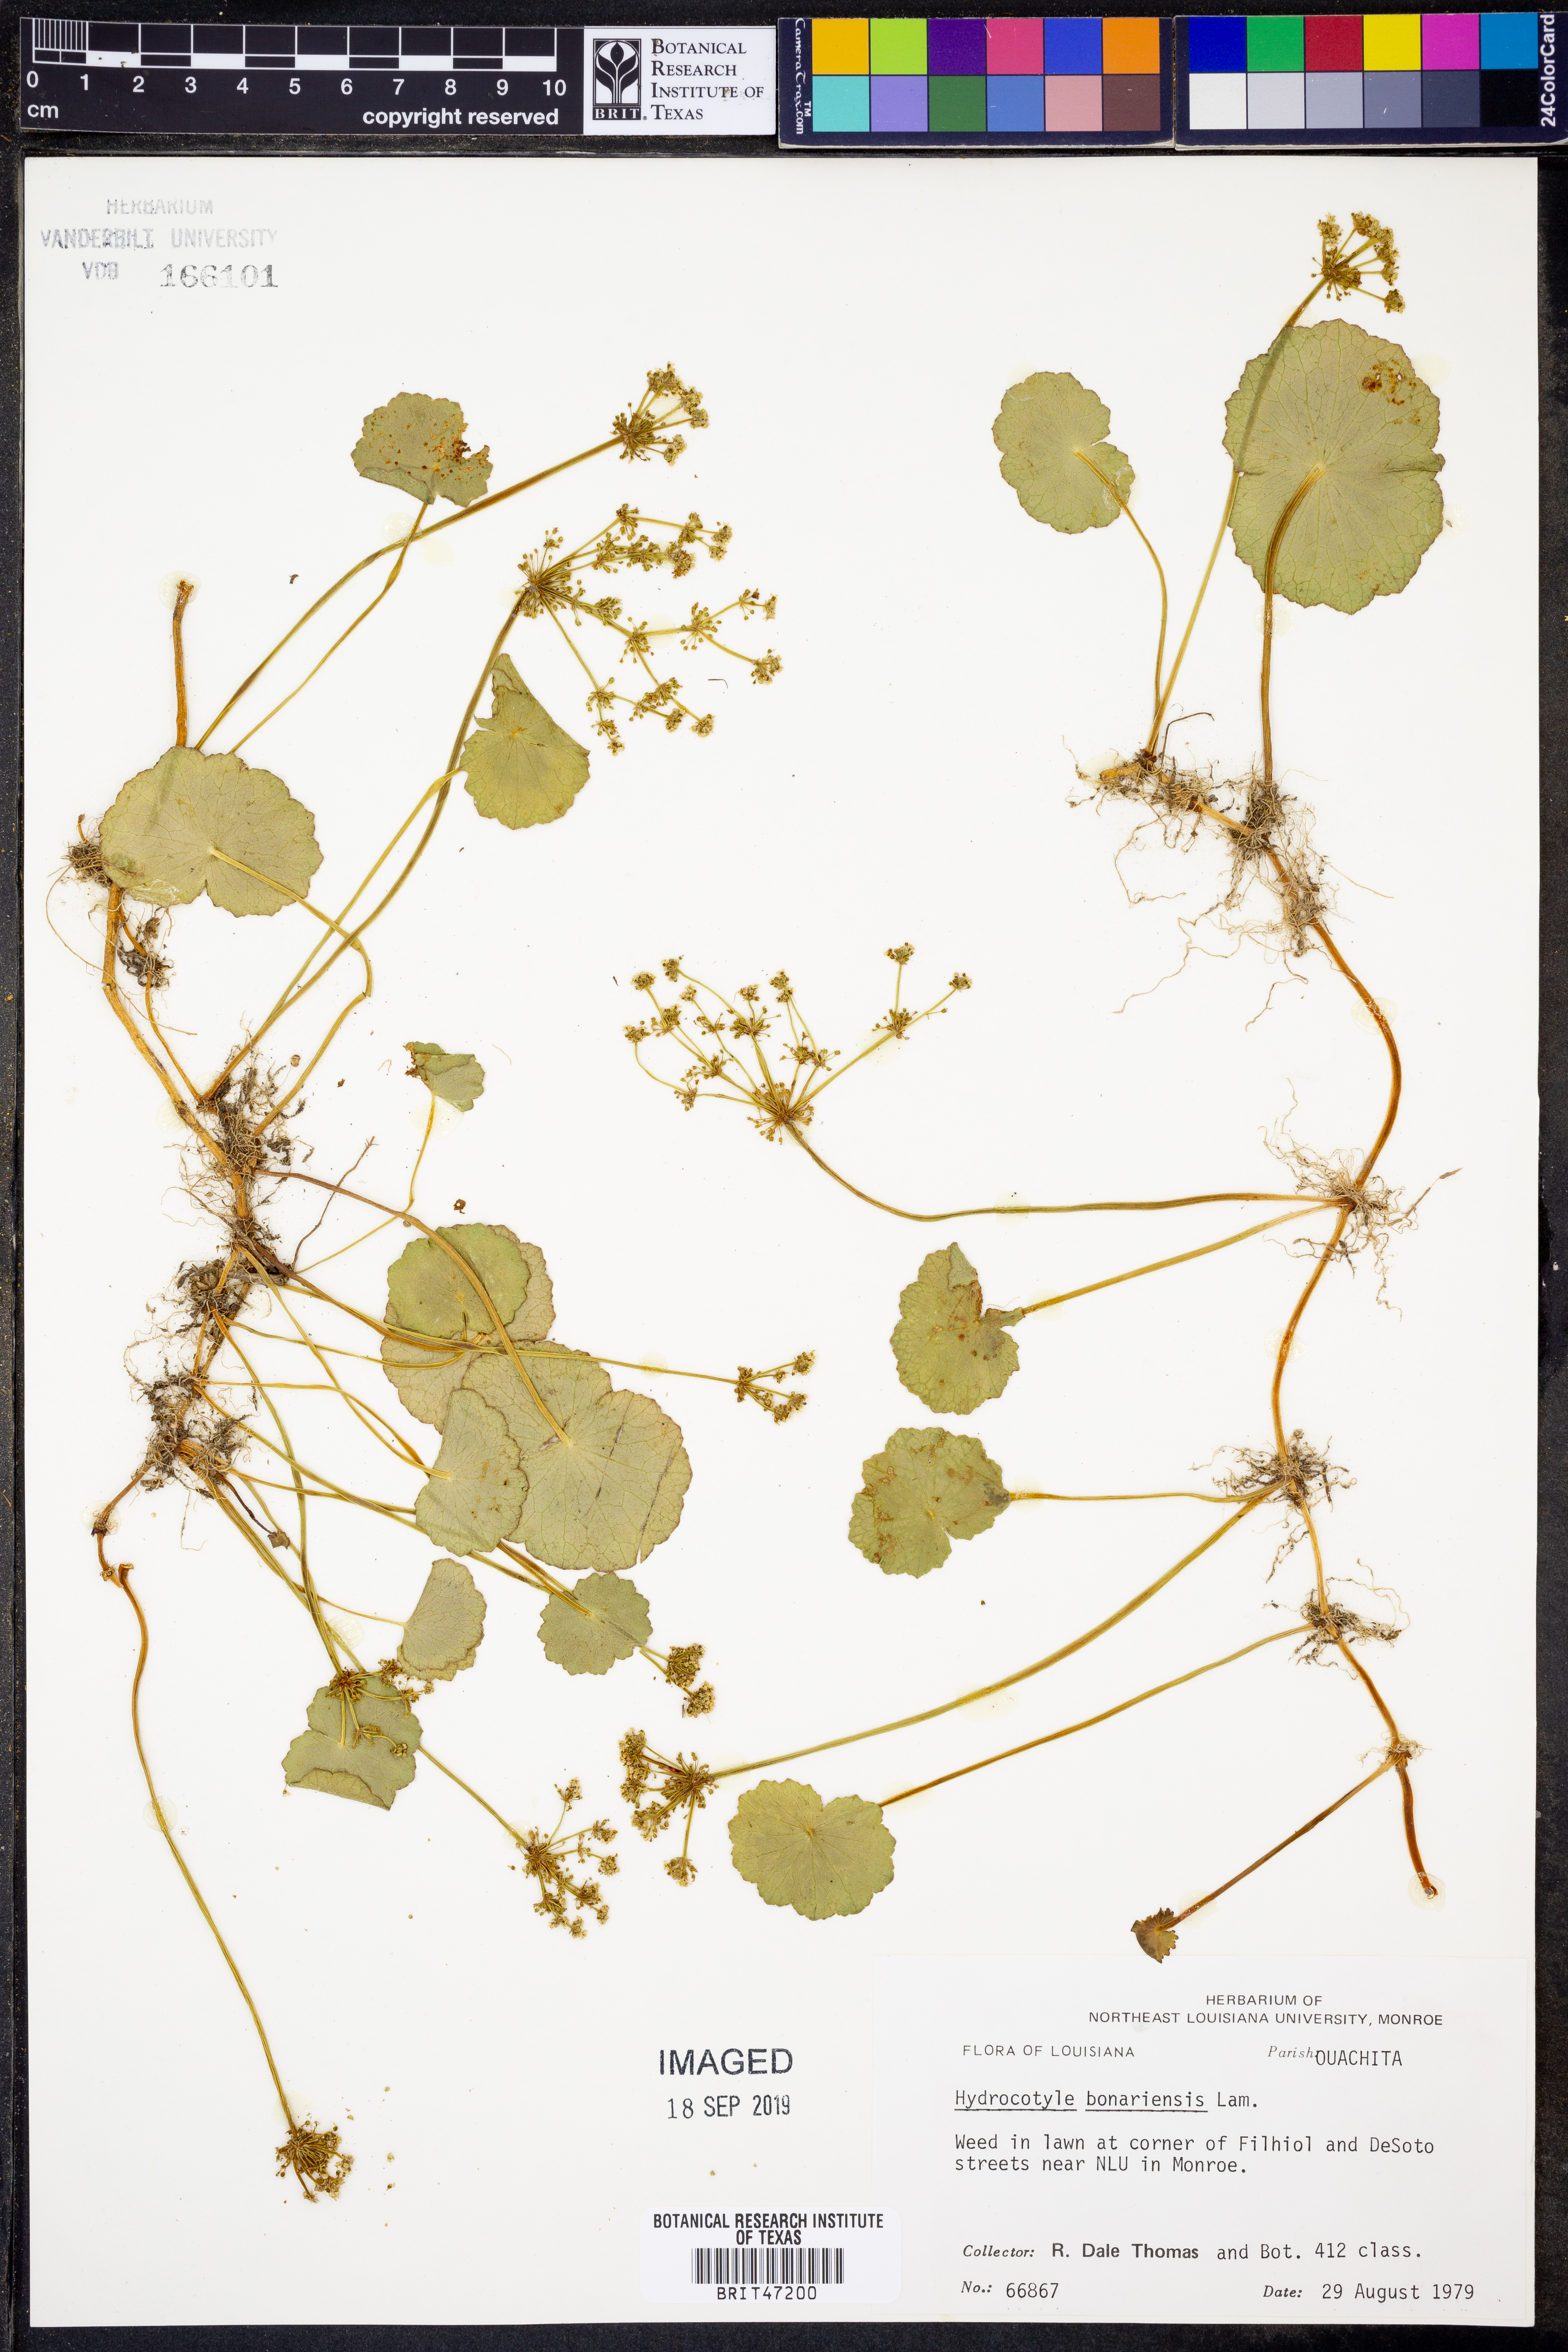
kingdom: Plantae
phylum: Tracheophyta
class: Magnoliopsida
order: Apiales
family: Araliaceae
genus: Hydrocotyle
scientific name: Hydrocotyle bonariensis
